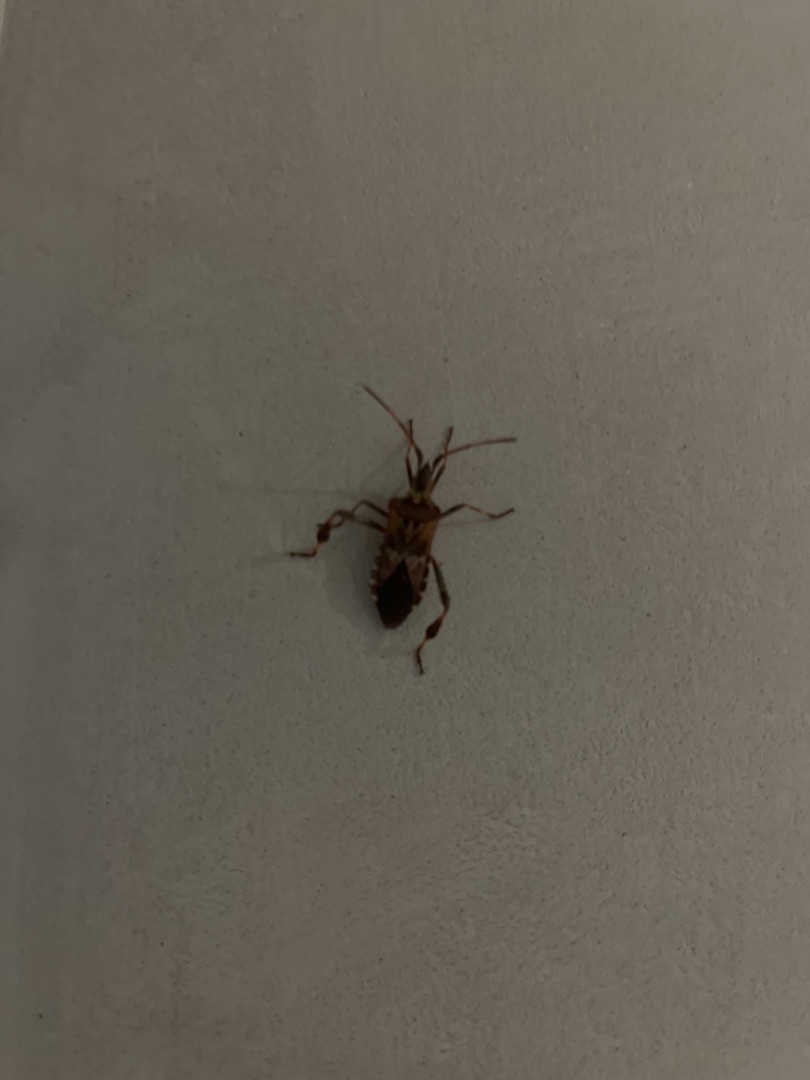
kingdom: Animalia
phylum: Arthropoda
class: Insecta
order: Hemiptera
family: Coreidae
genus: Leptoglossus
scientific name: Leptoglossus occidentalis
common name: Amerikansk fyrretæge
